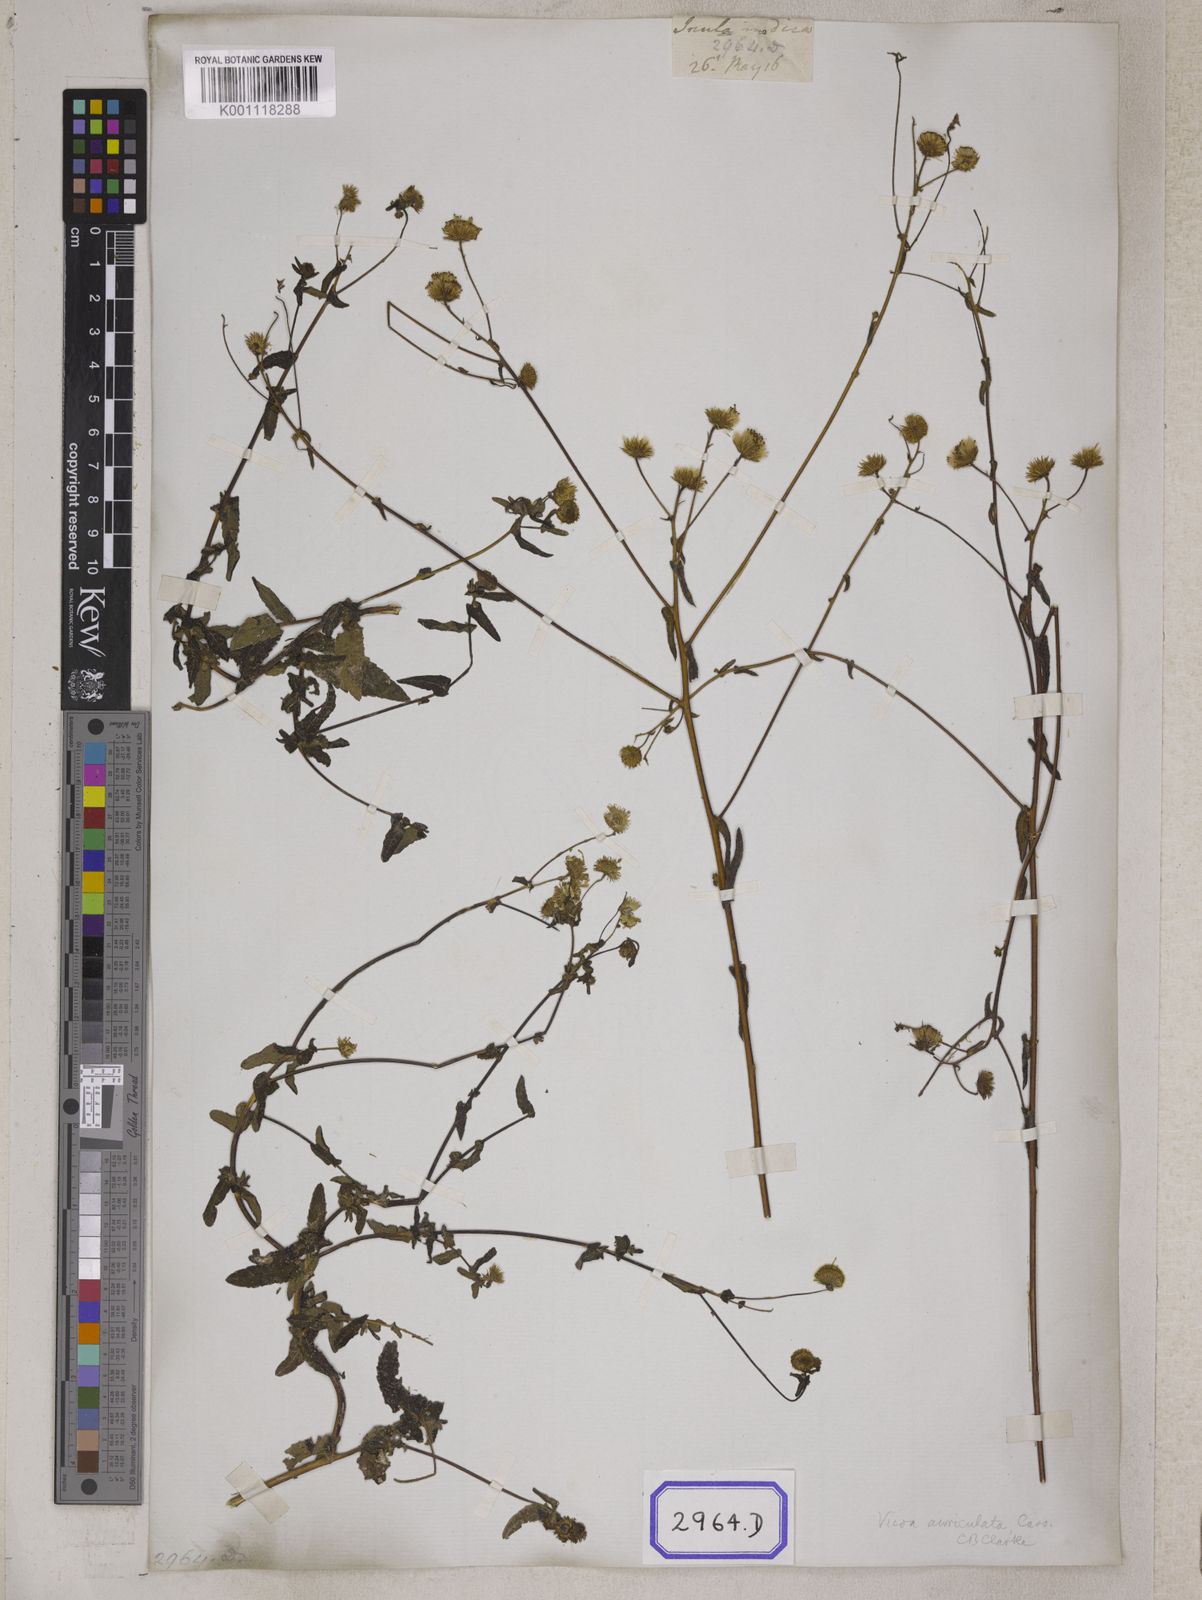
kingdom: Plantae
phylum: Tracheophyta
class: Magnoliopsida
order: Asterales
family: Asteraceae
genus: Vicoa
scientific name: Vicoa indica
